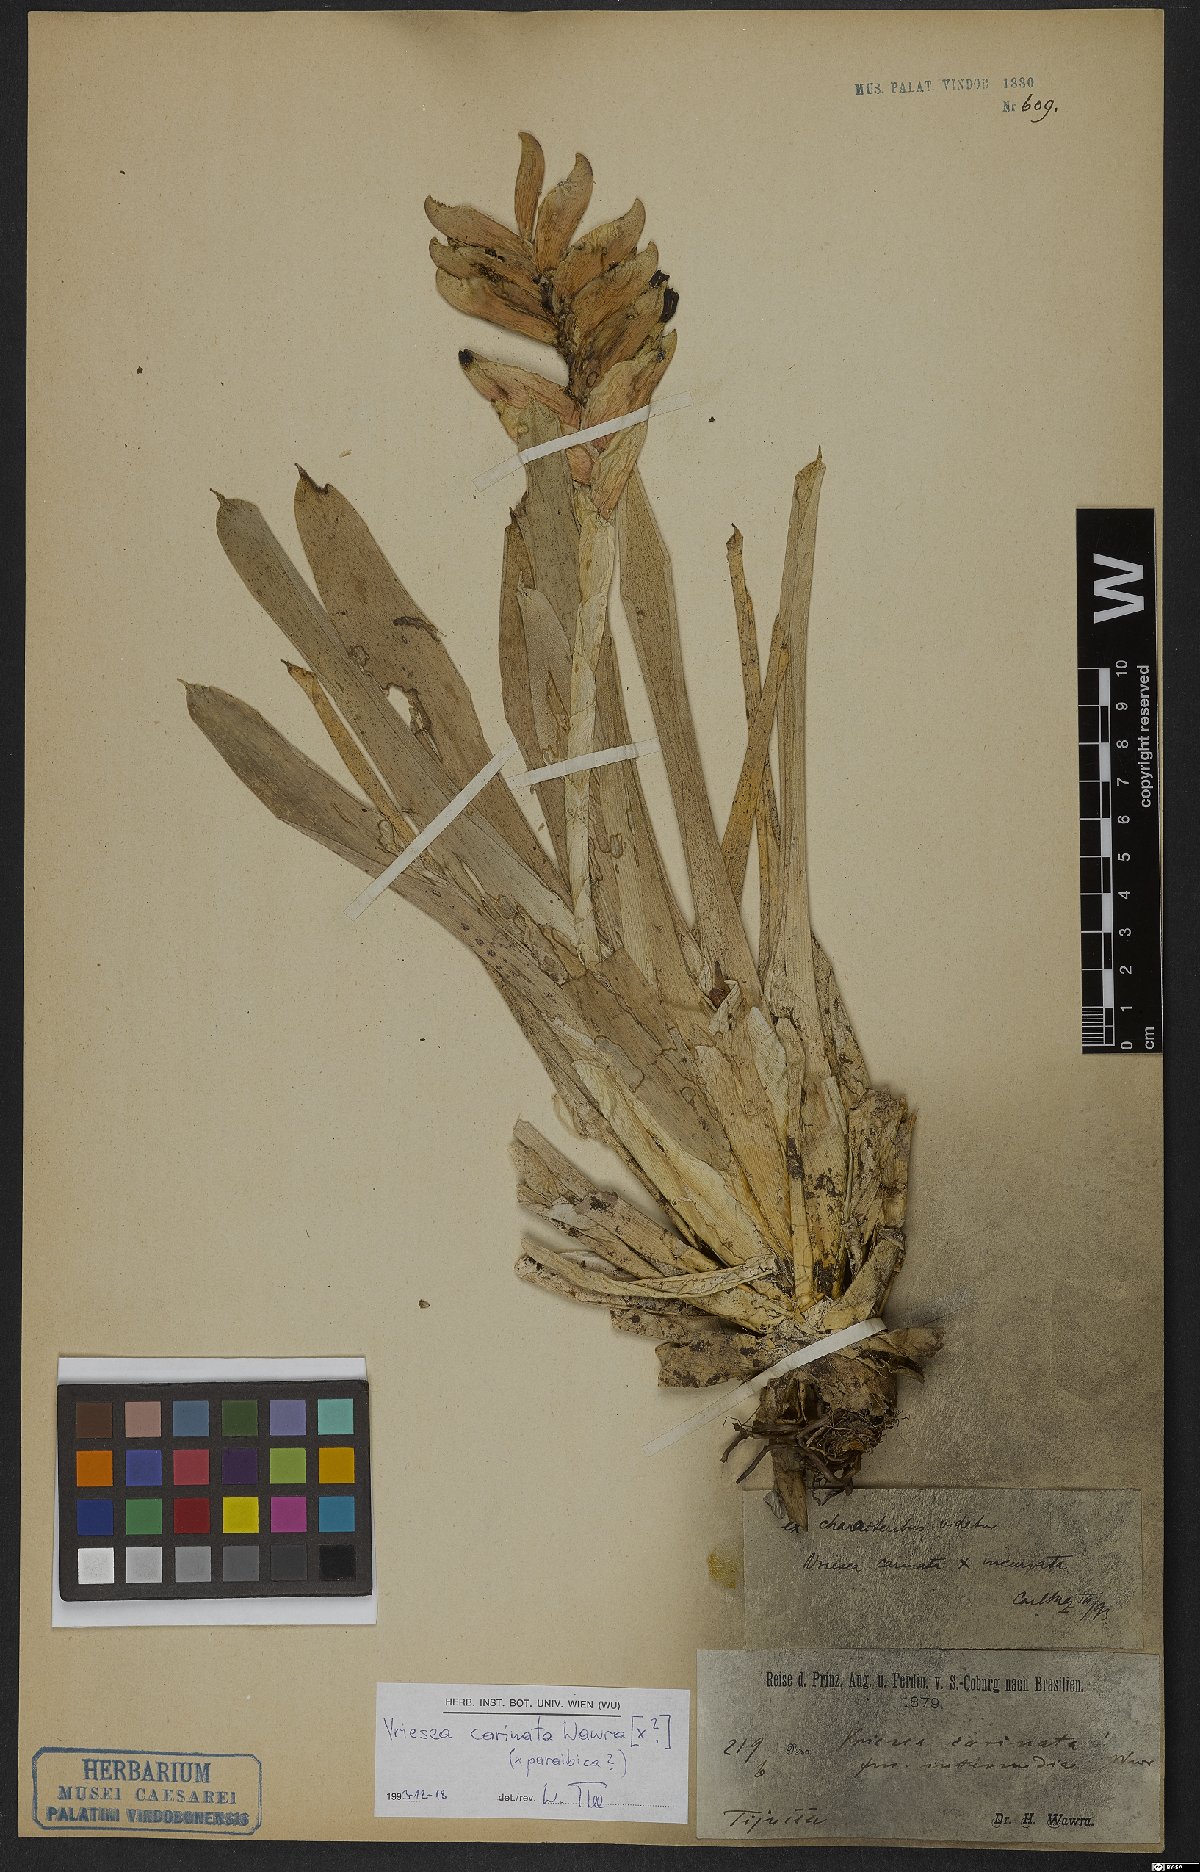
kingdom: Plantae
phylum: Tracheophyta
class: Liliopsida
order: Poales
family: Bromeliaceae
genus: Vriesea
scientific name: Vriesea carinata
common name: Lobster-claws
